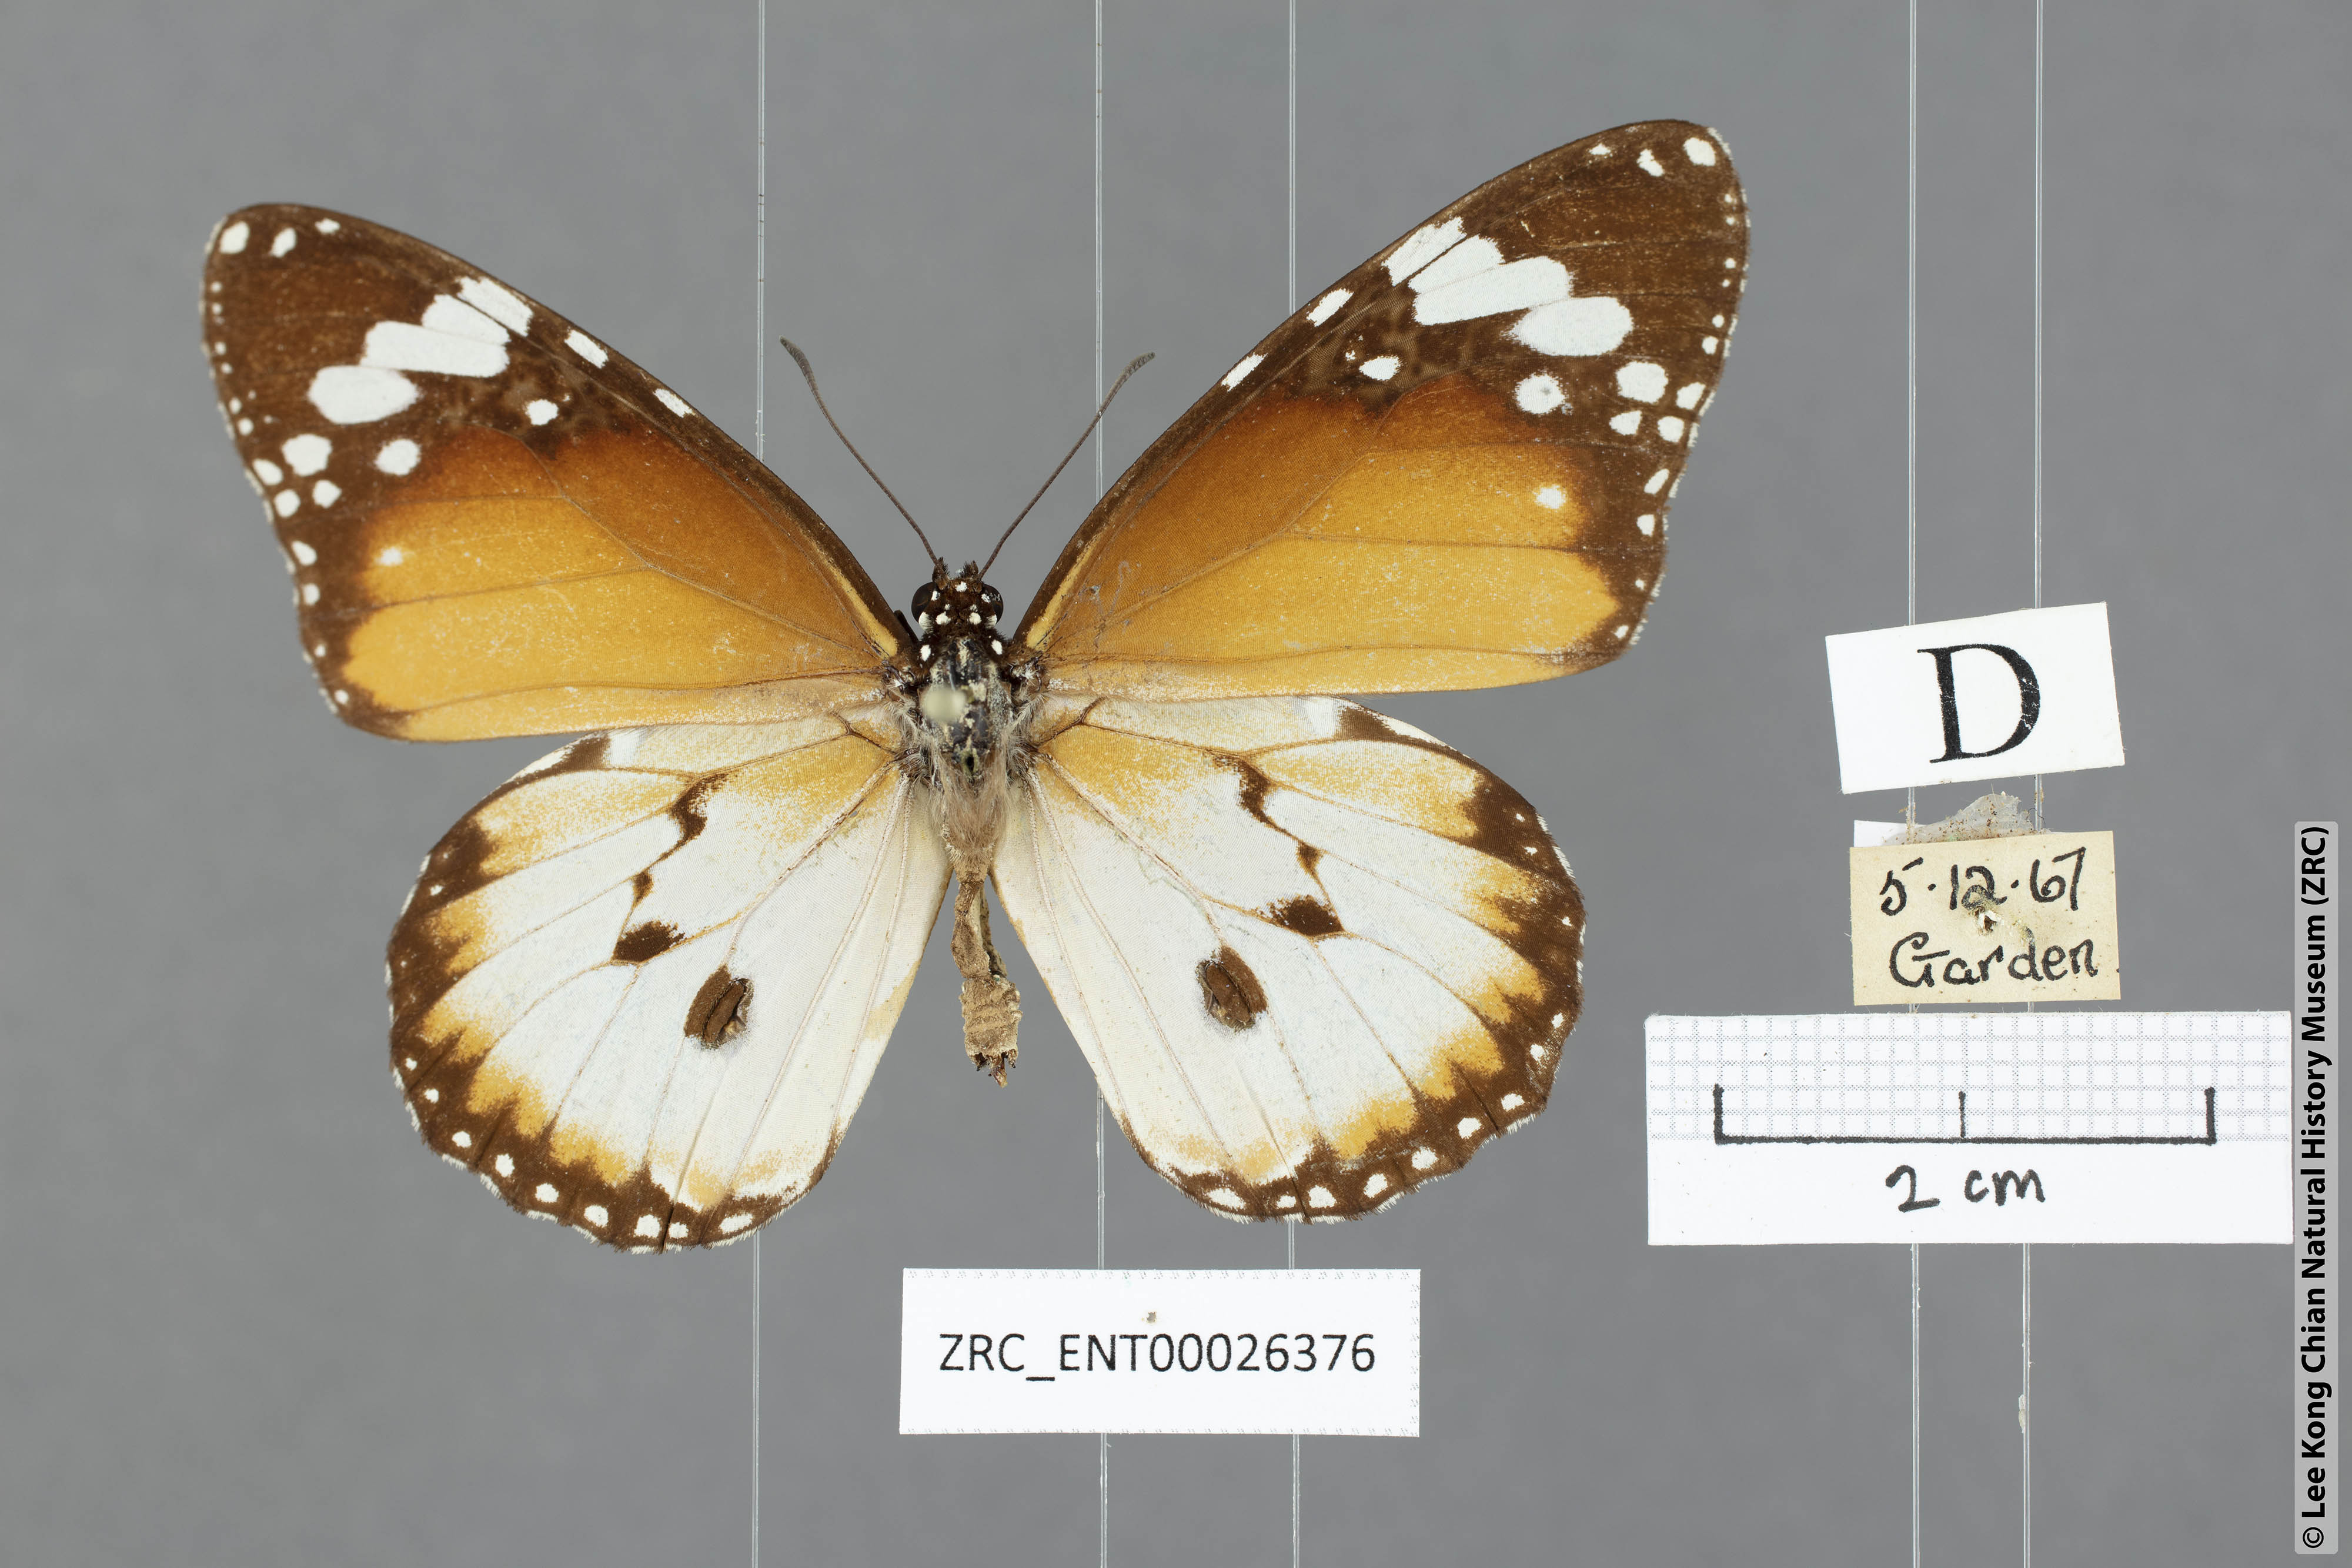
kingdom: Animalia
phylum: Arthropoda
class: Insecta
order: Lepidoptera
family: Nymphalidae
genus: Danaus
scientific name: Danaus chrysippus
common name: Plain tiger
